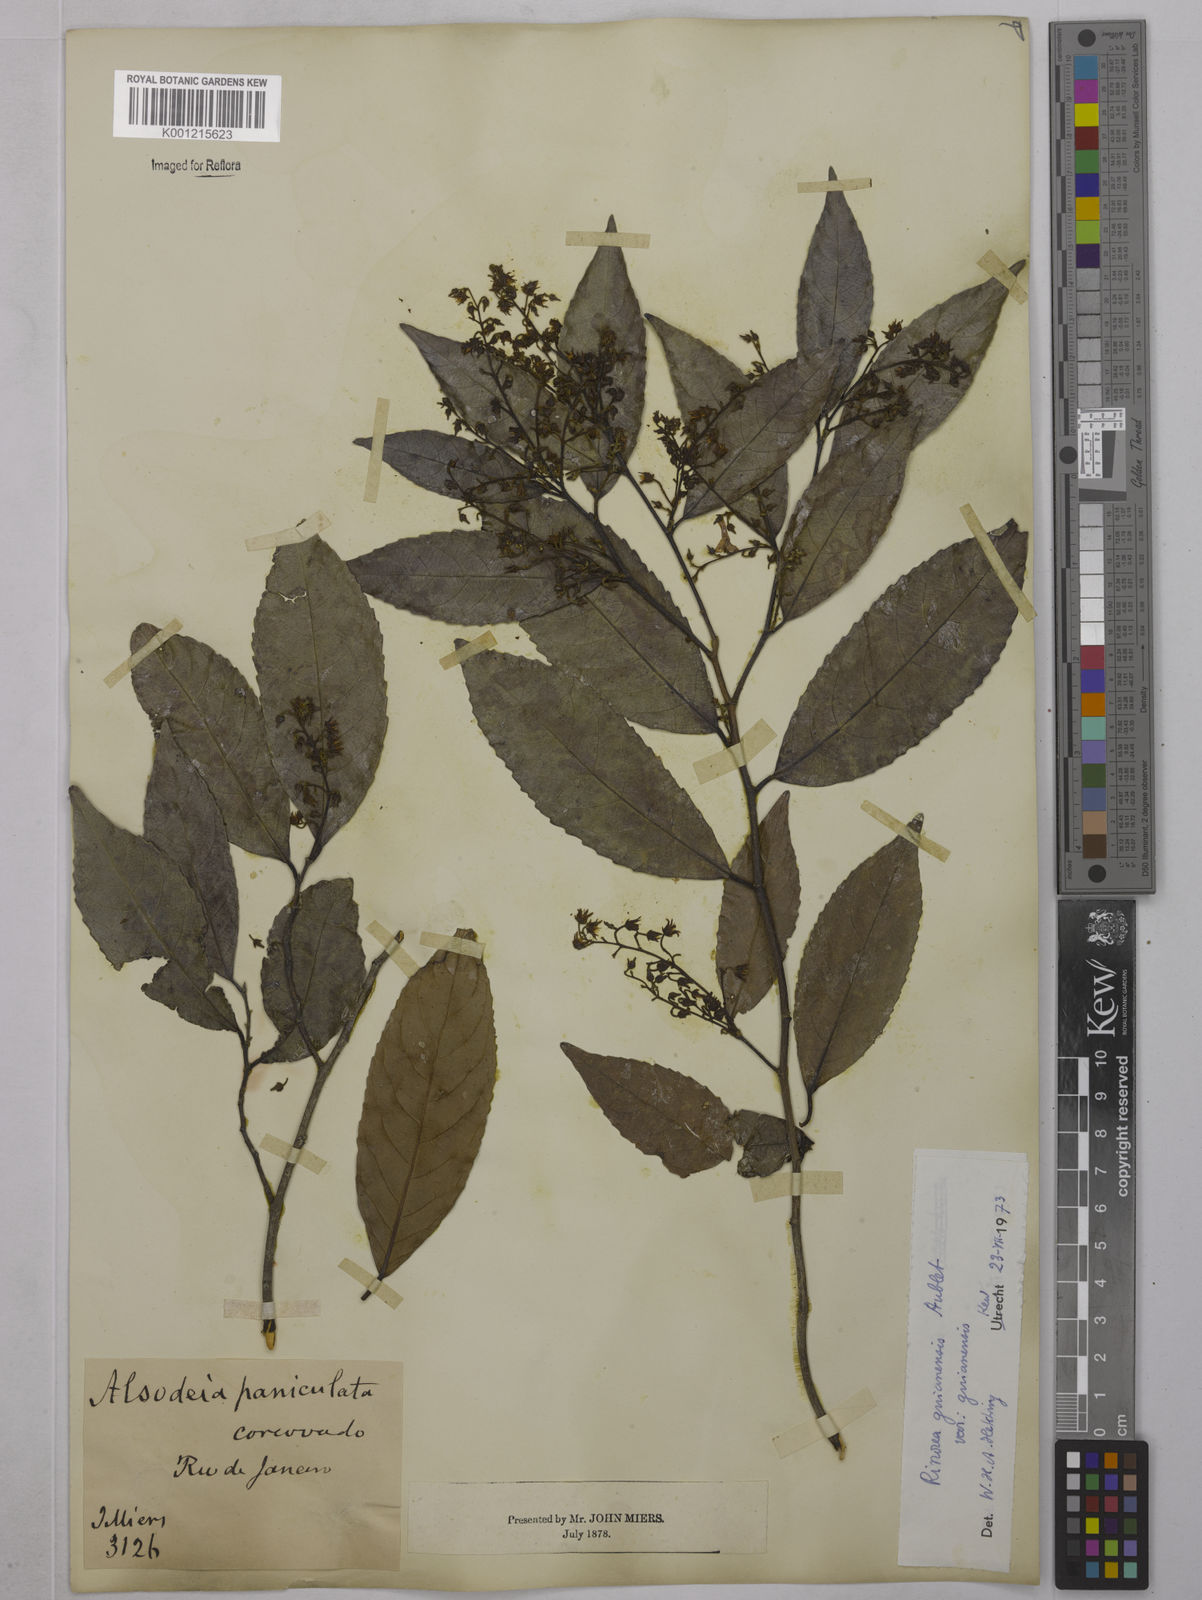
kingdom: Plantae
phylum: Tracheophyta
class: Magnoliopsida
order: Malpighiales
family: Violaceae
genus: Rinorea
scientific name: Rinorea guianensis
